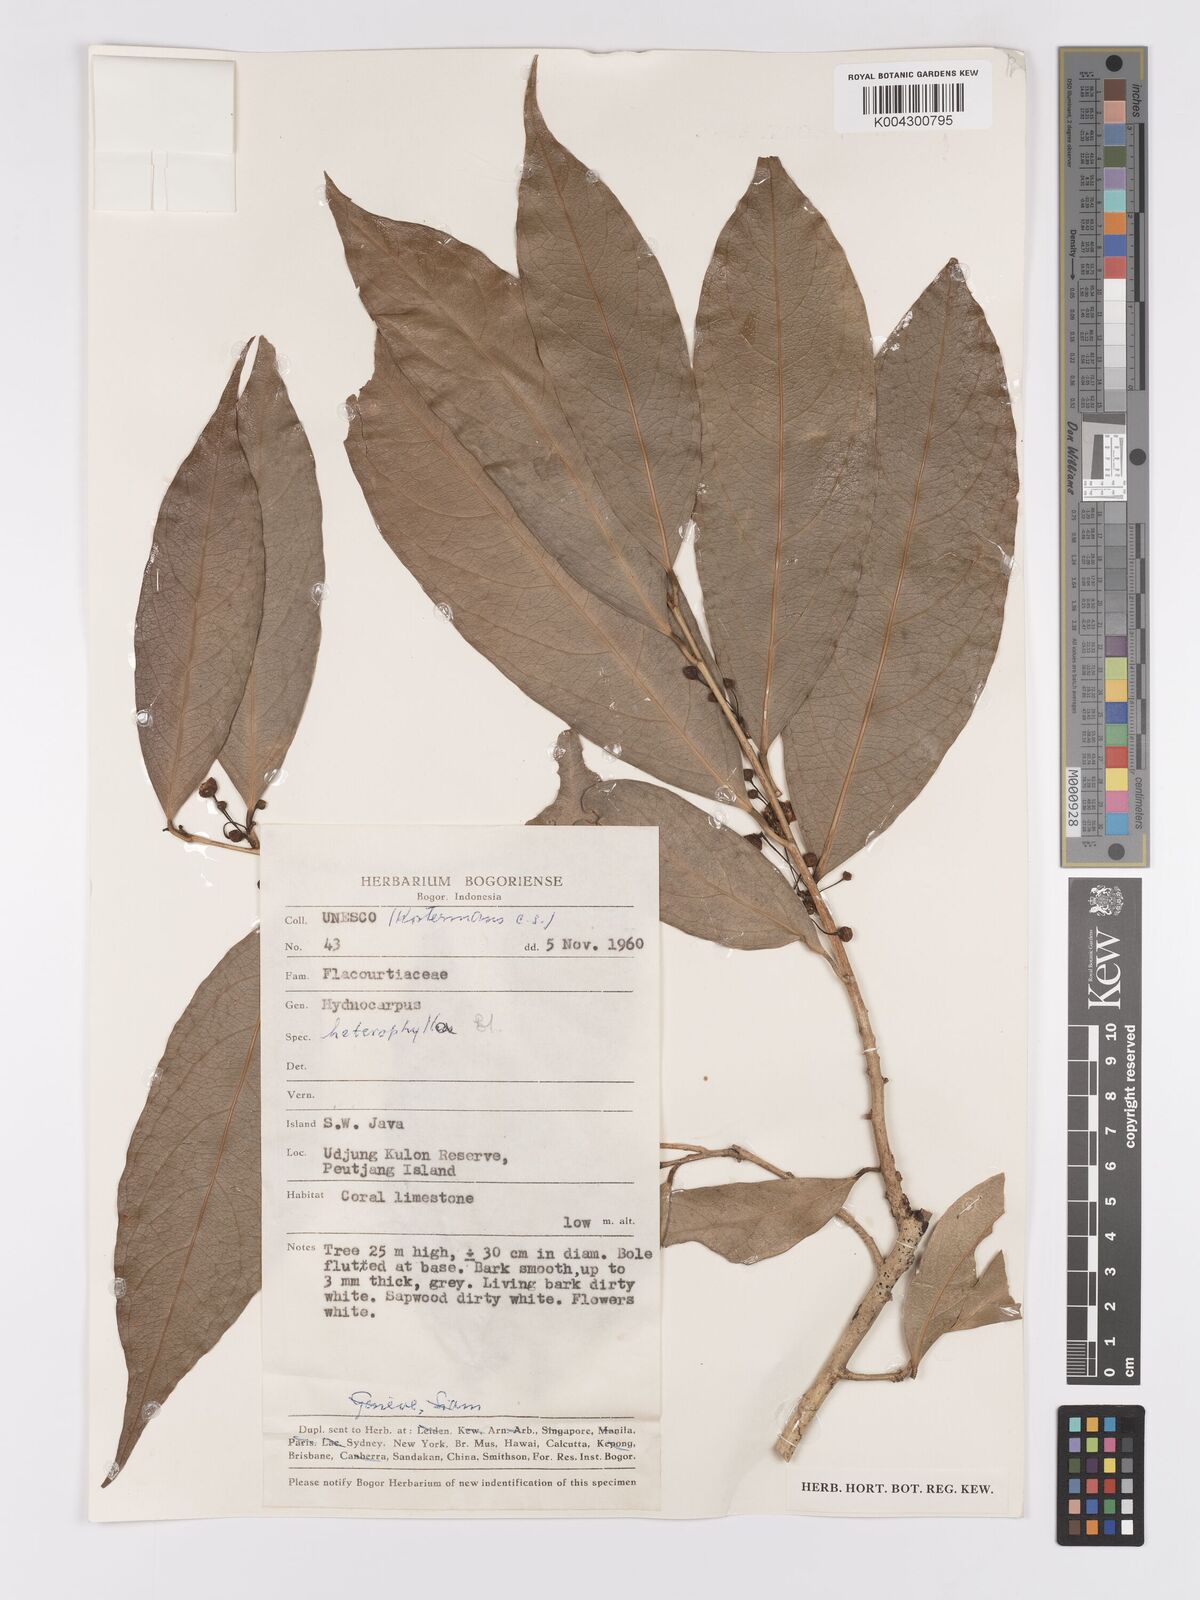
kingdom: Plantae
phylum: Tracheophyta
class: Magnoliopsida
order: Malpighiales
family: Achariaceae
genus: Hydnocarpus
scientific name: Hydnocarpus heterophyllus
